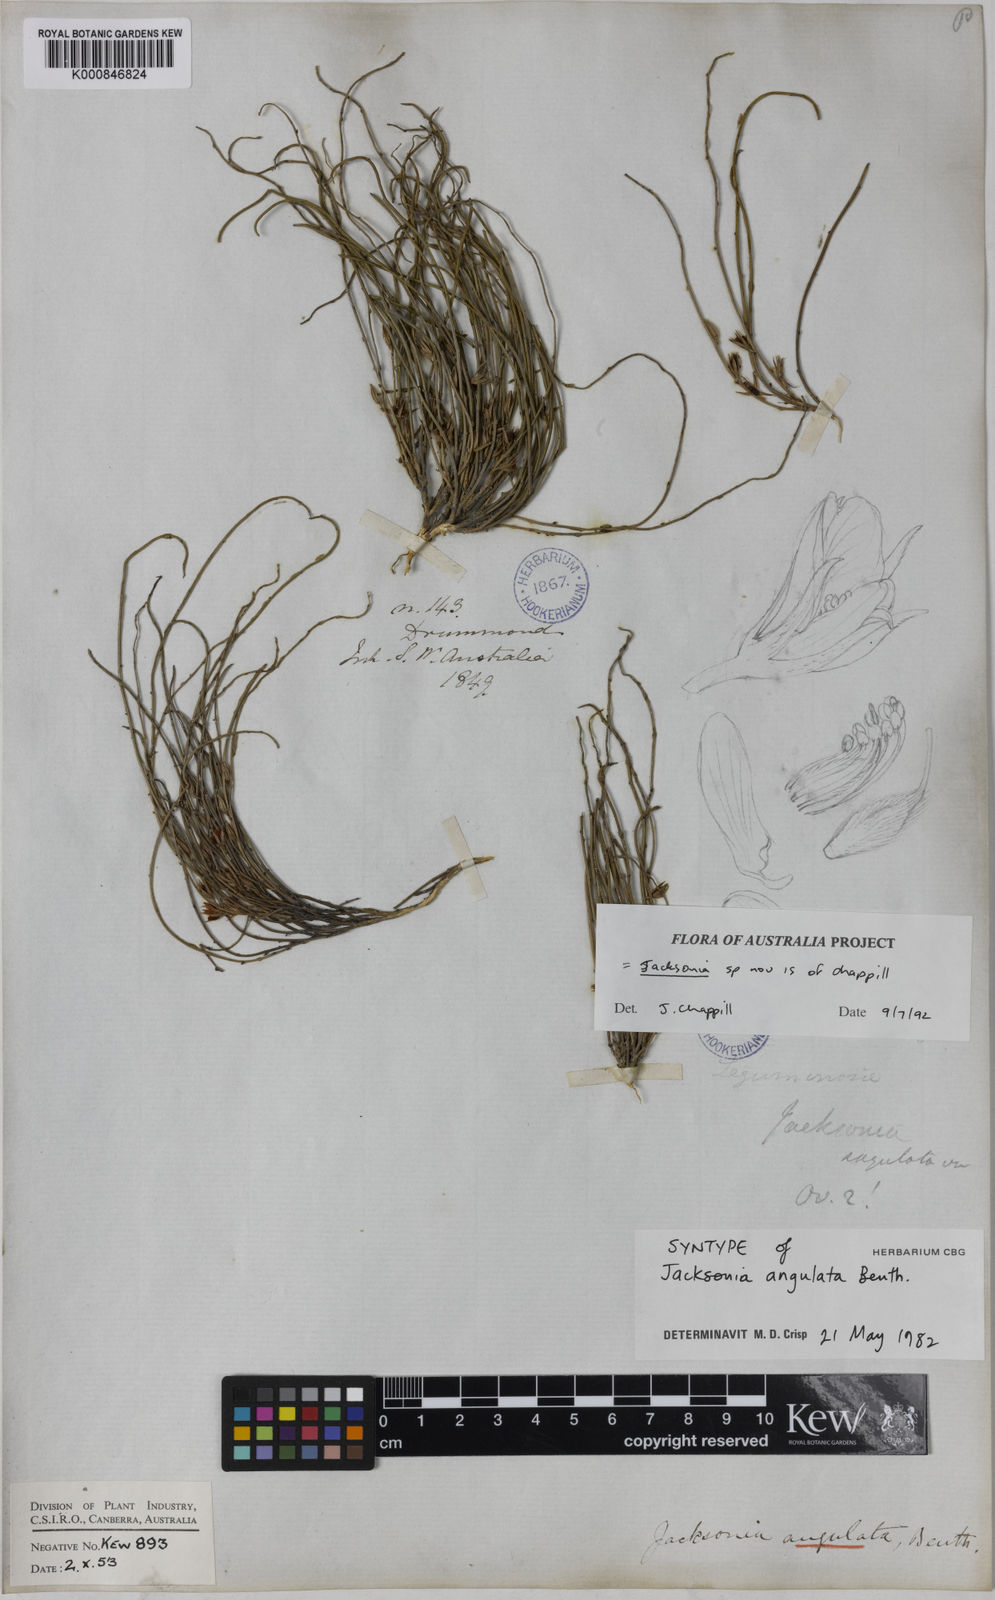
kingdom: Plantae
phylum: Tracheophyta
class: Magnoliopsida
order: Fabales
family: Fabaceae
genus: Jacksonia
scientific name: Jacksonia angulata
